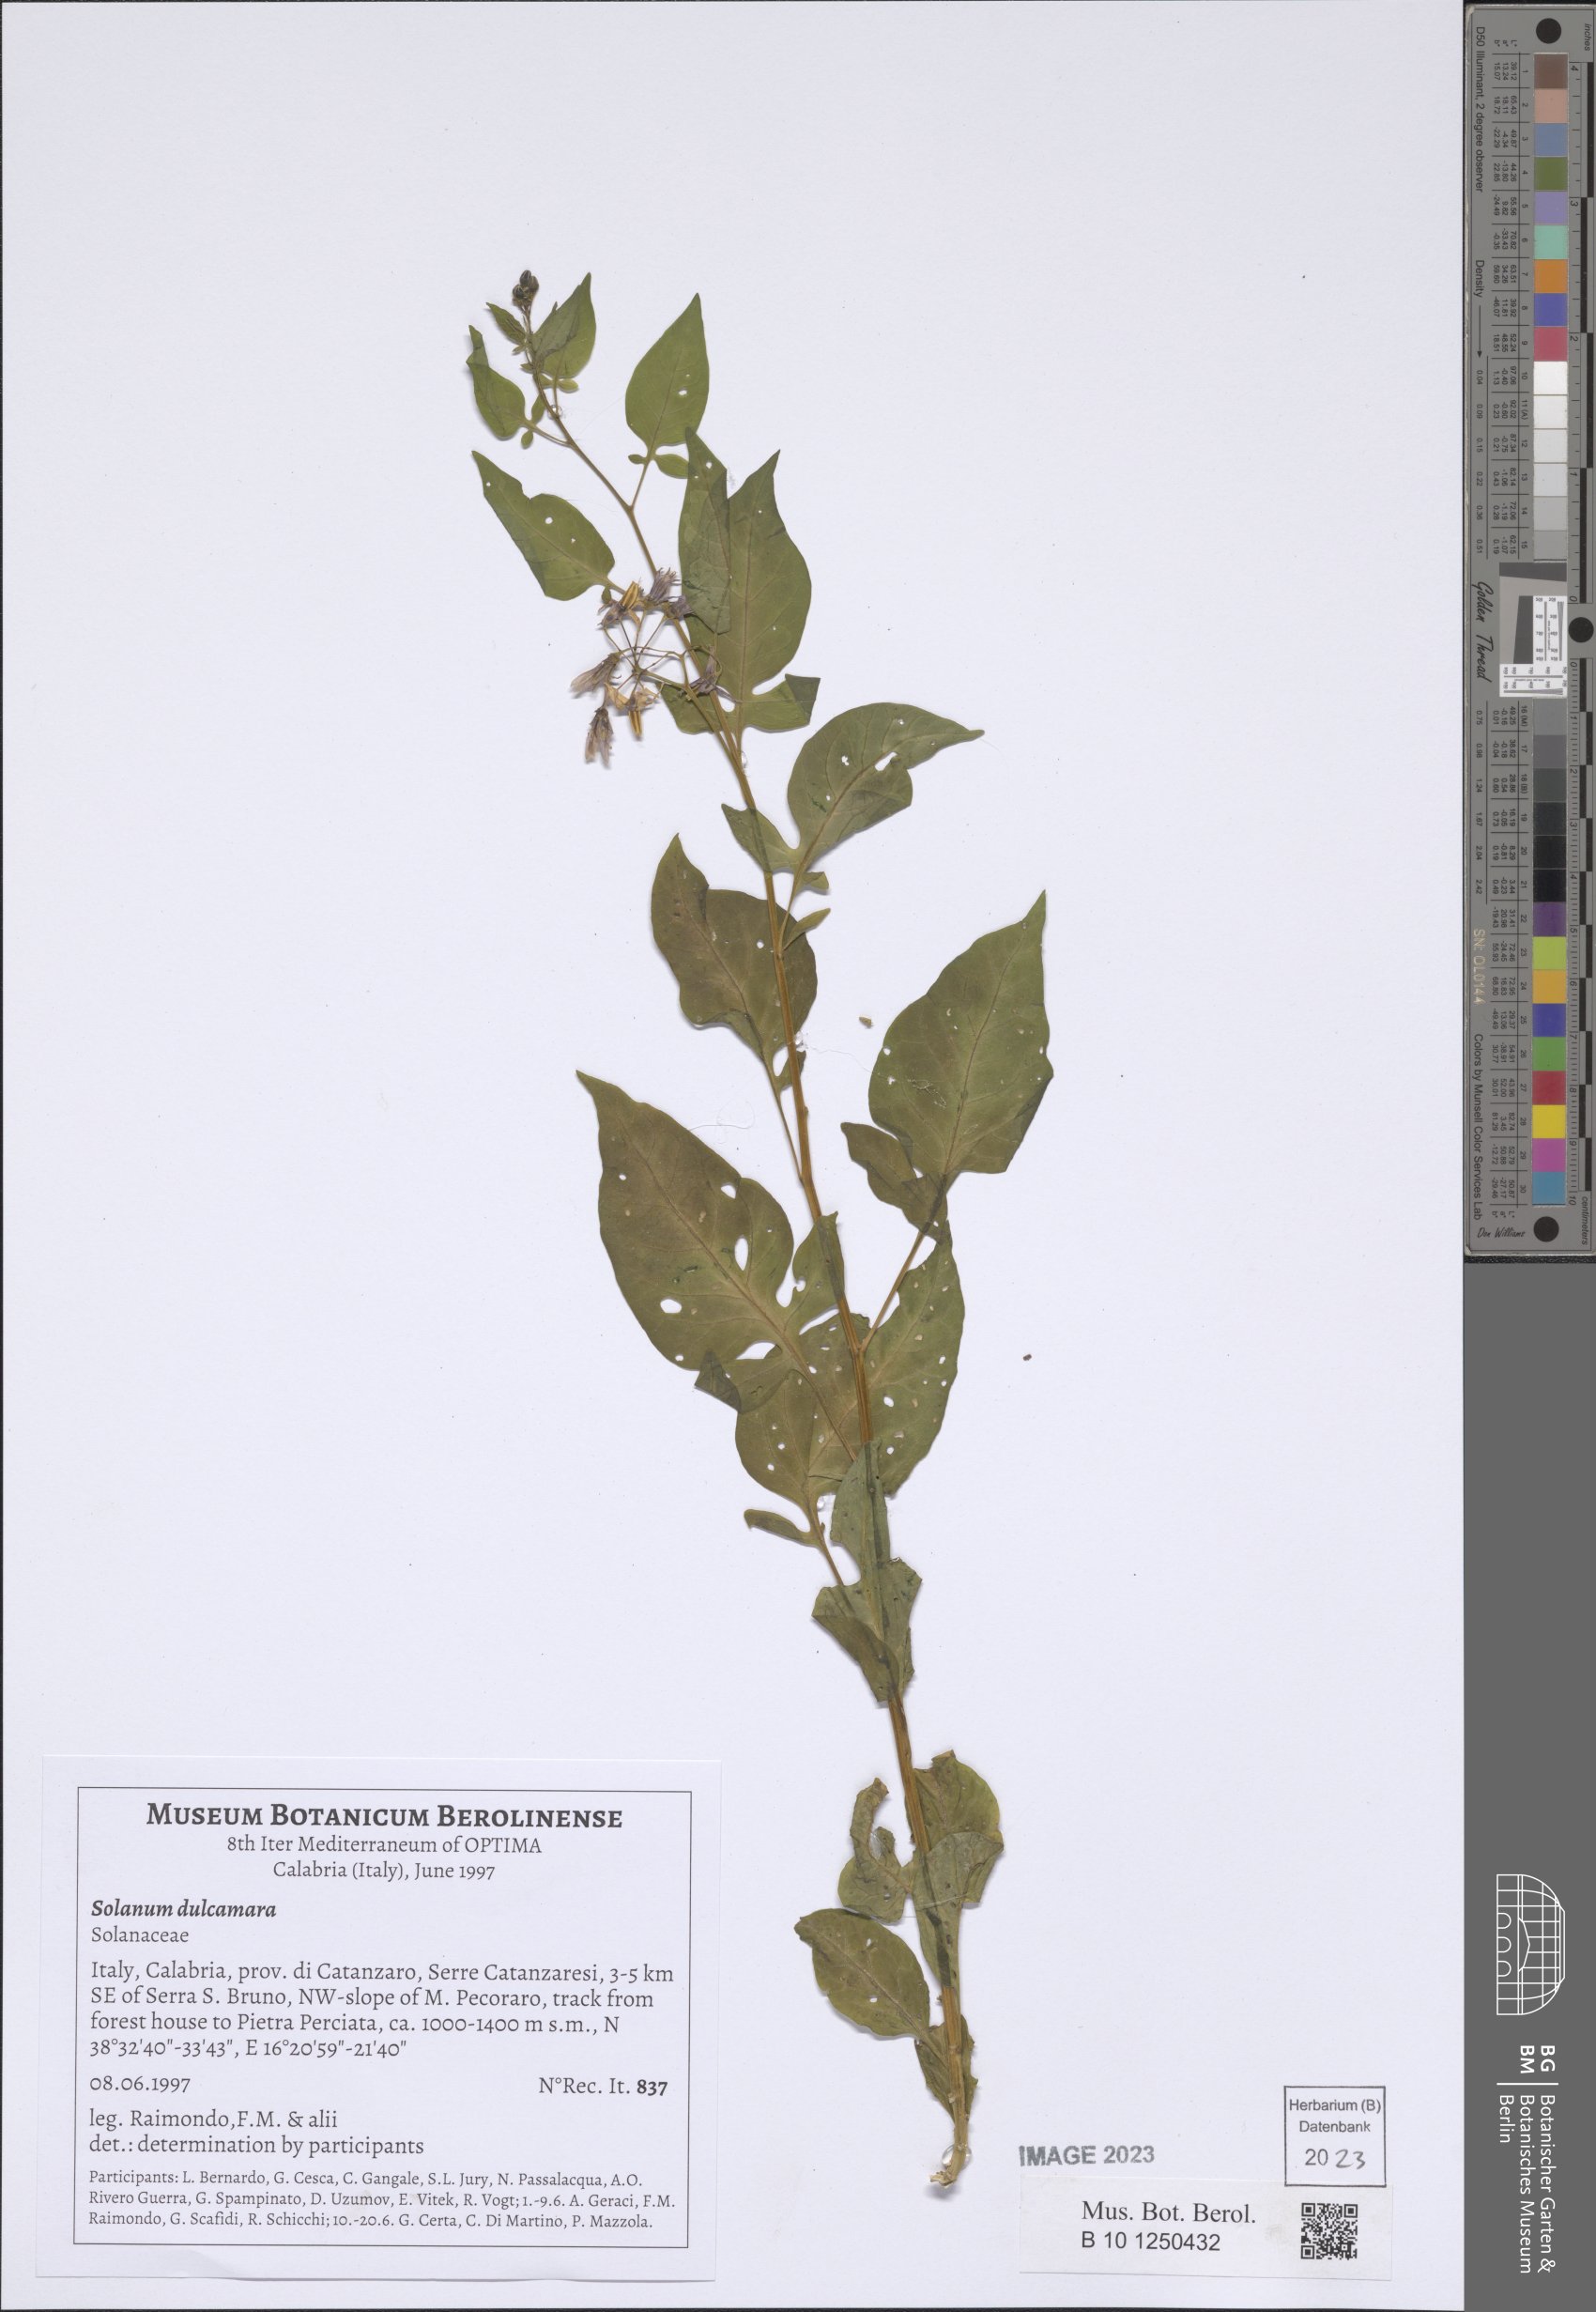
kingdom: Plantae
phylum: Tracheophyta
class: Magnoliopsida
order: Solanales
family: Solanaceae
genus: Solanum
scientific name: Solanum dulcamara
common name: Climbing nightshade
